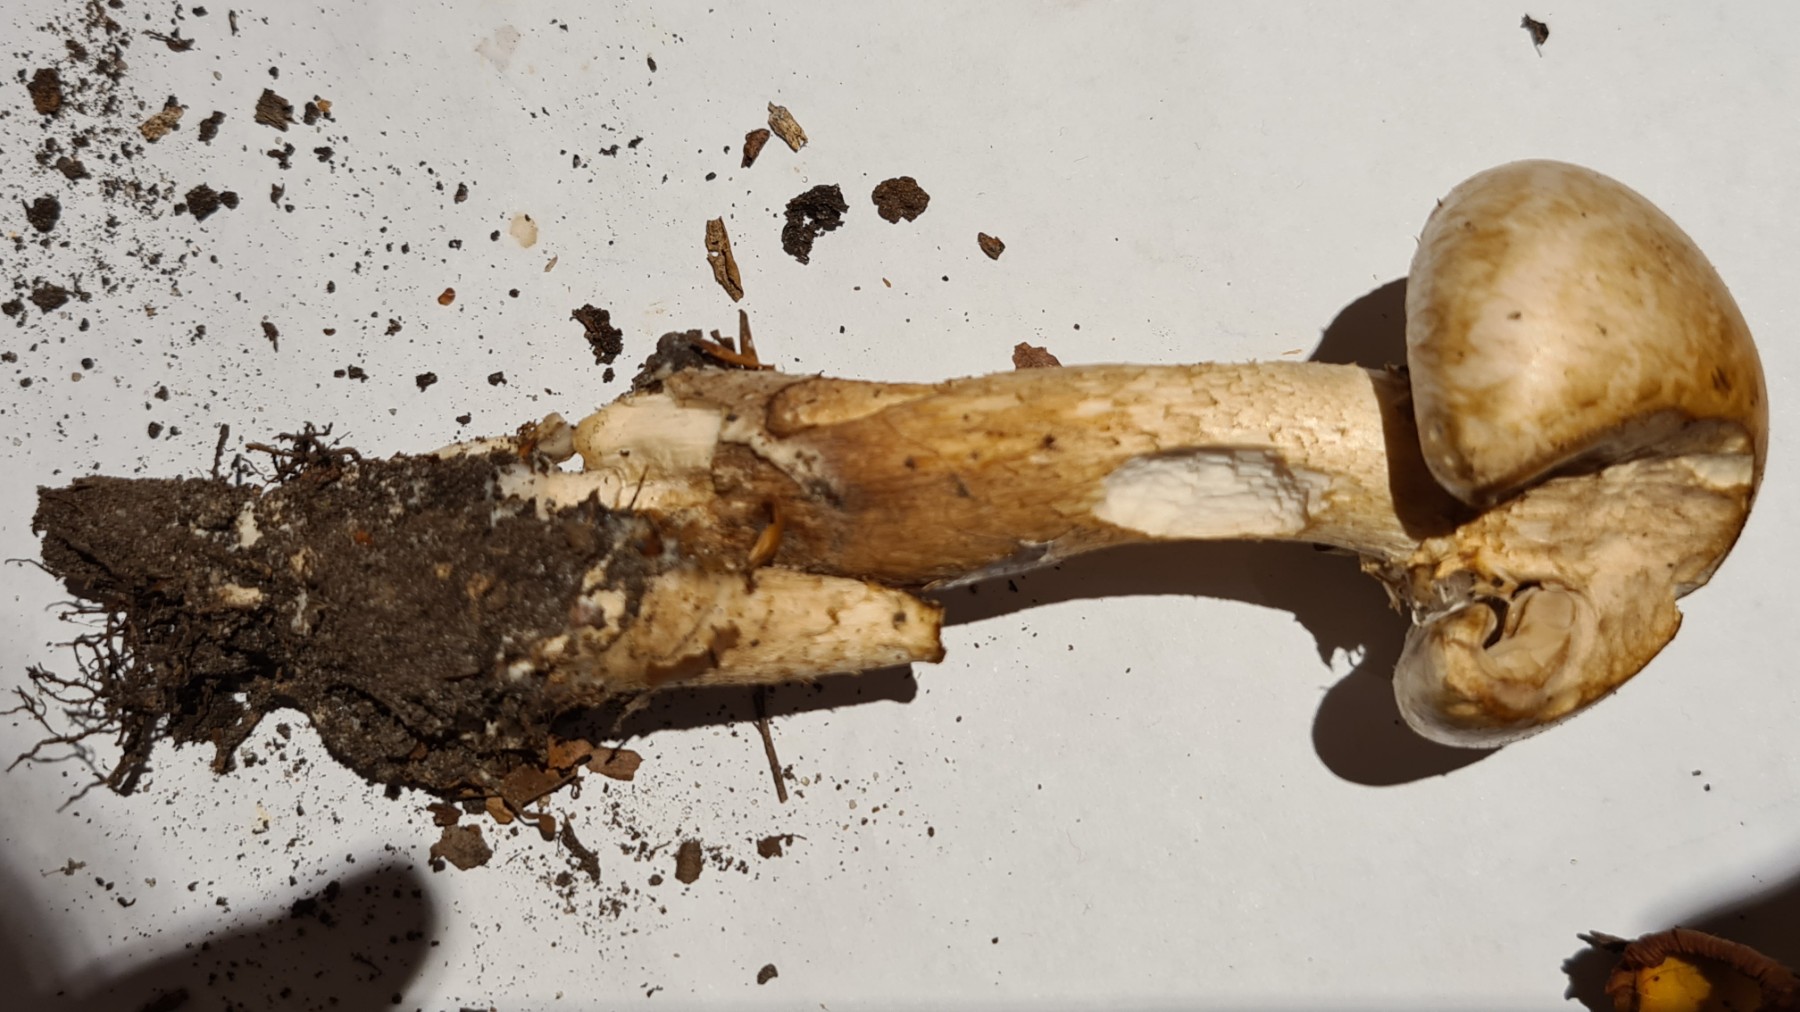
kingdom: Fungi
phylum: Basidiomycota
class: Agaricomycetes
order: Agaricales
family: Hymenogastraceae
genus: Hebeloma
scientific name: Hebeloma radicosum
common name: pælerods-tåreblad
